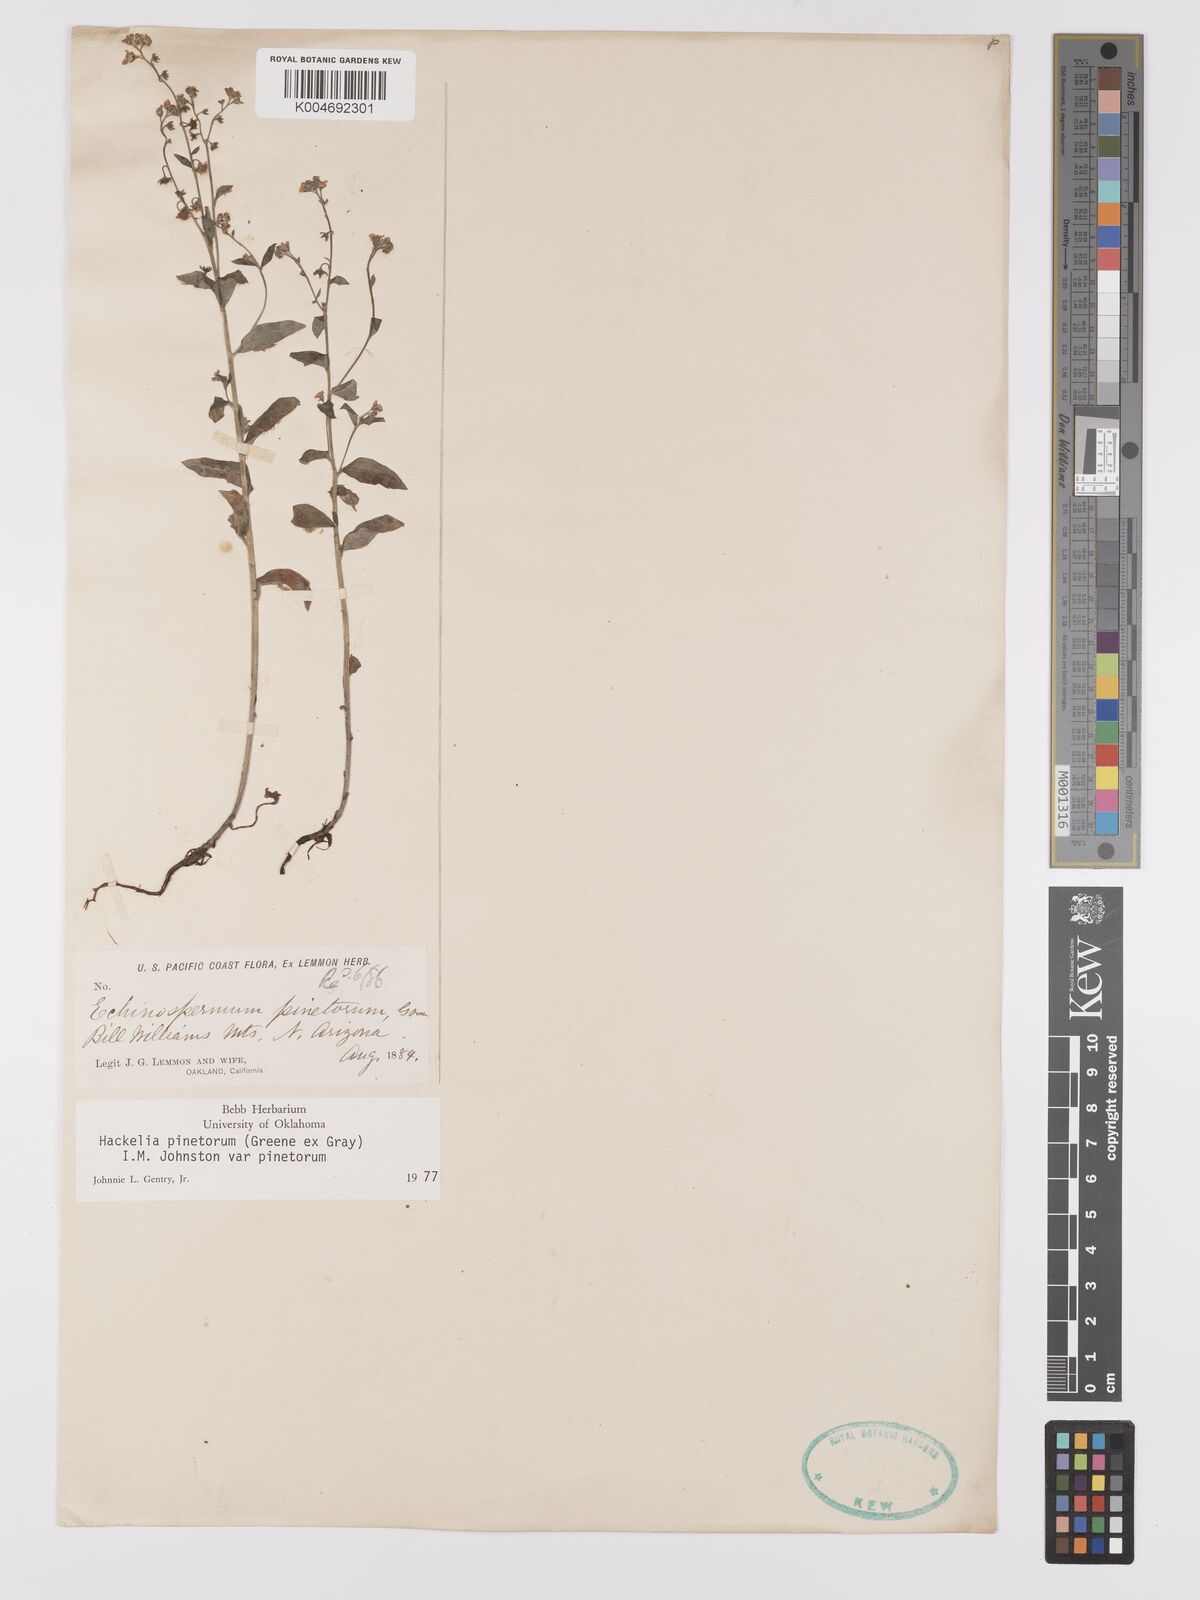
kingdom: Plantae
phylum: Tracheophyta
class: Magnoliopsida
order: Boraginales
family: Boraginaceae
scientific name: Boraginaceae
